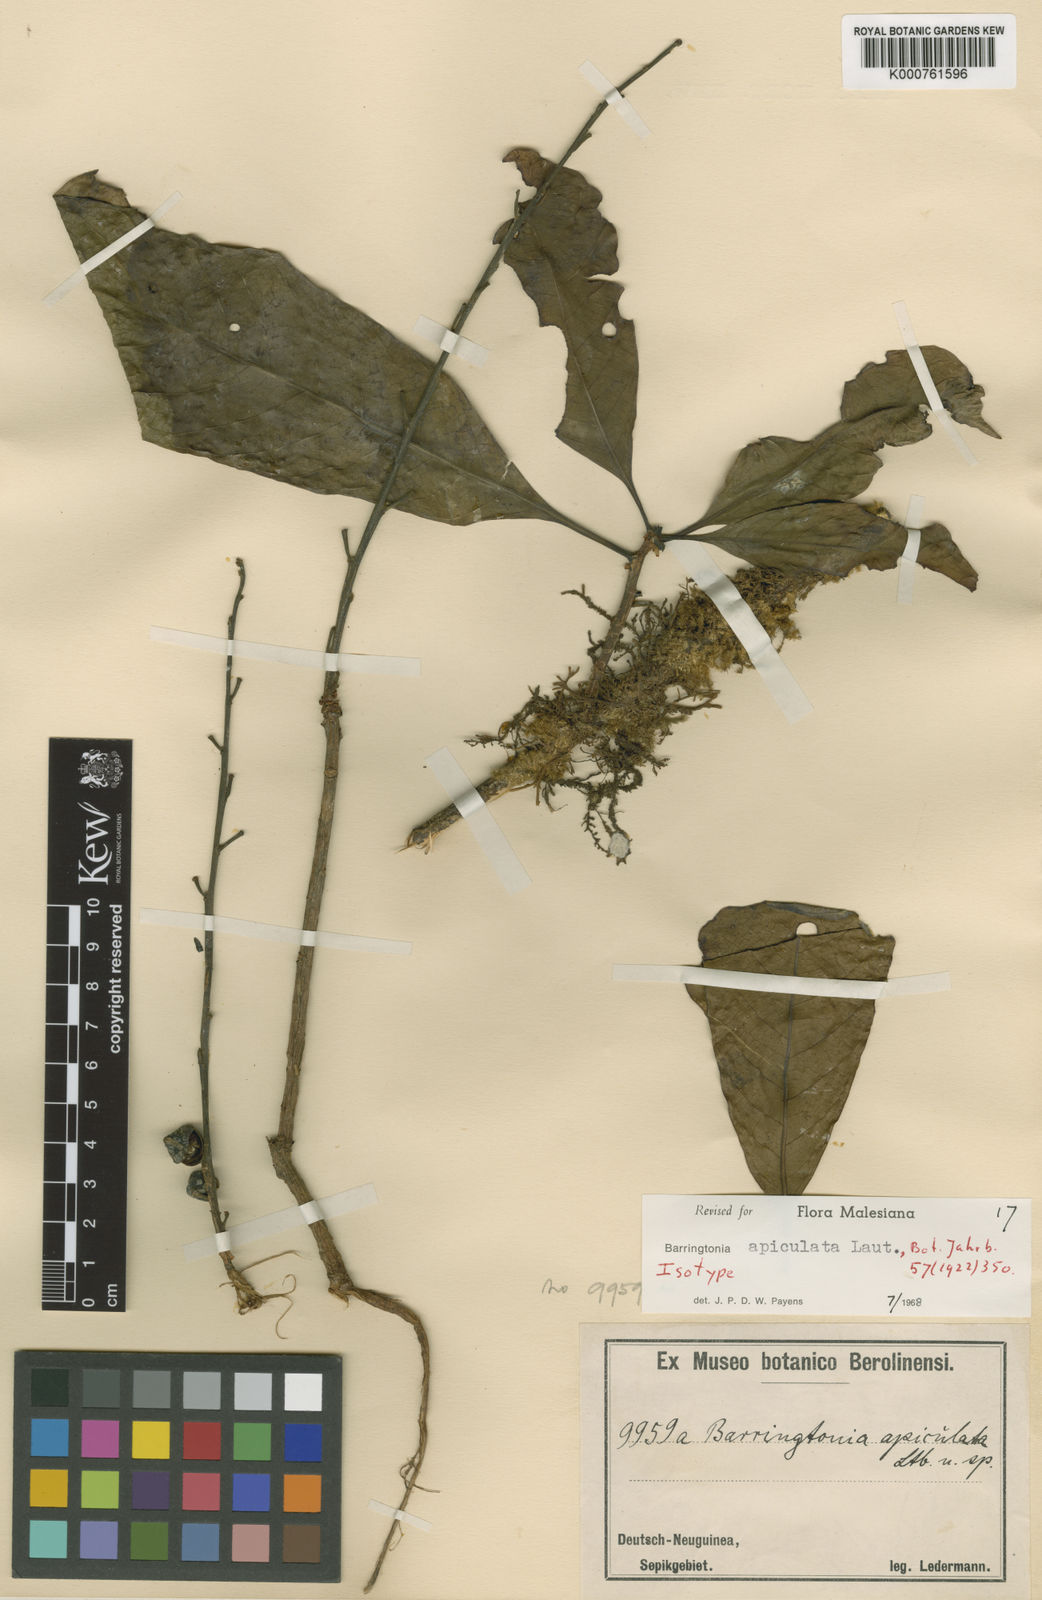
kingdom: Plantae
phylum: Tracheophyta
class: Magnoliopsida
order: Ericales
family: Lecythidaceae
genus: Barringtonia
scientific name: Barringtonia apiculata
